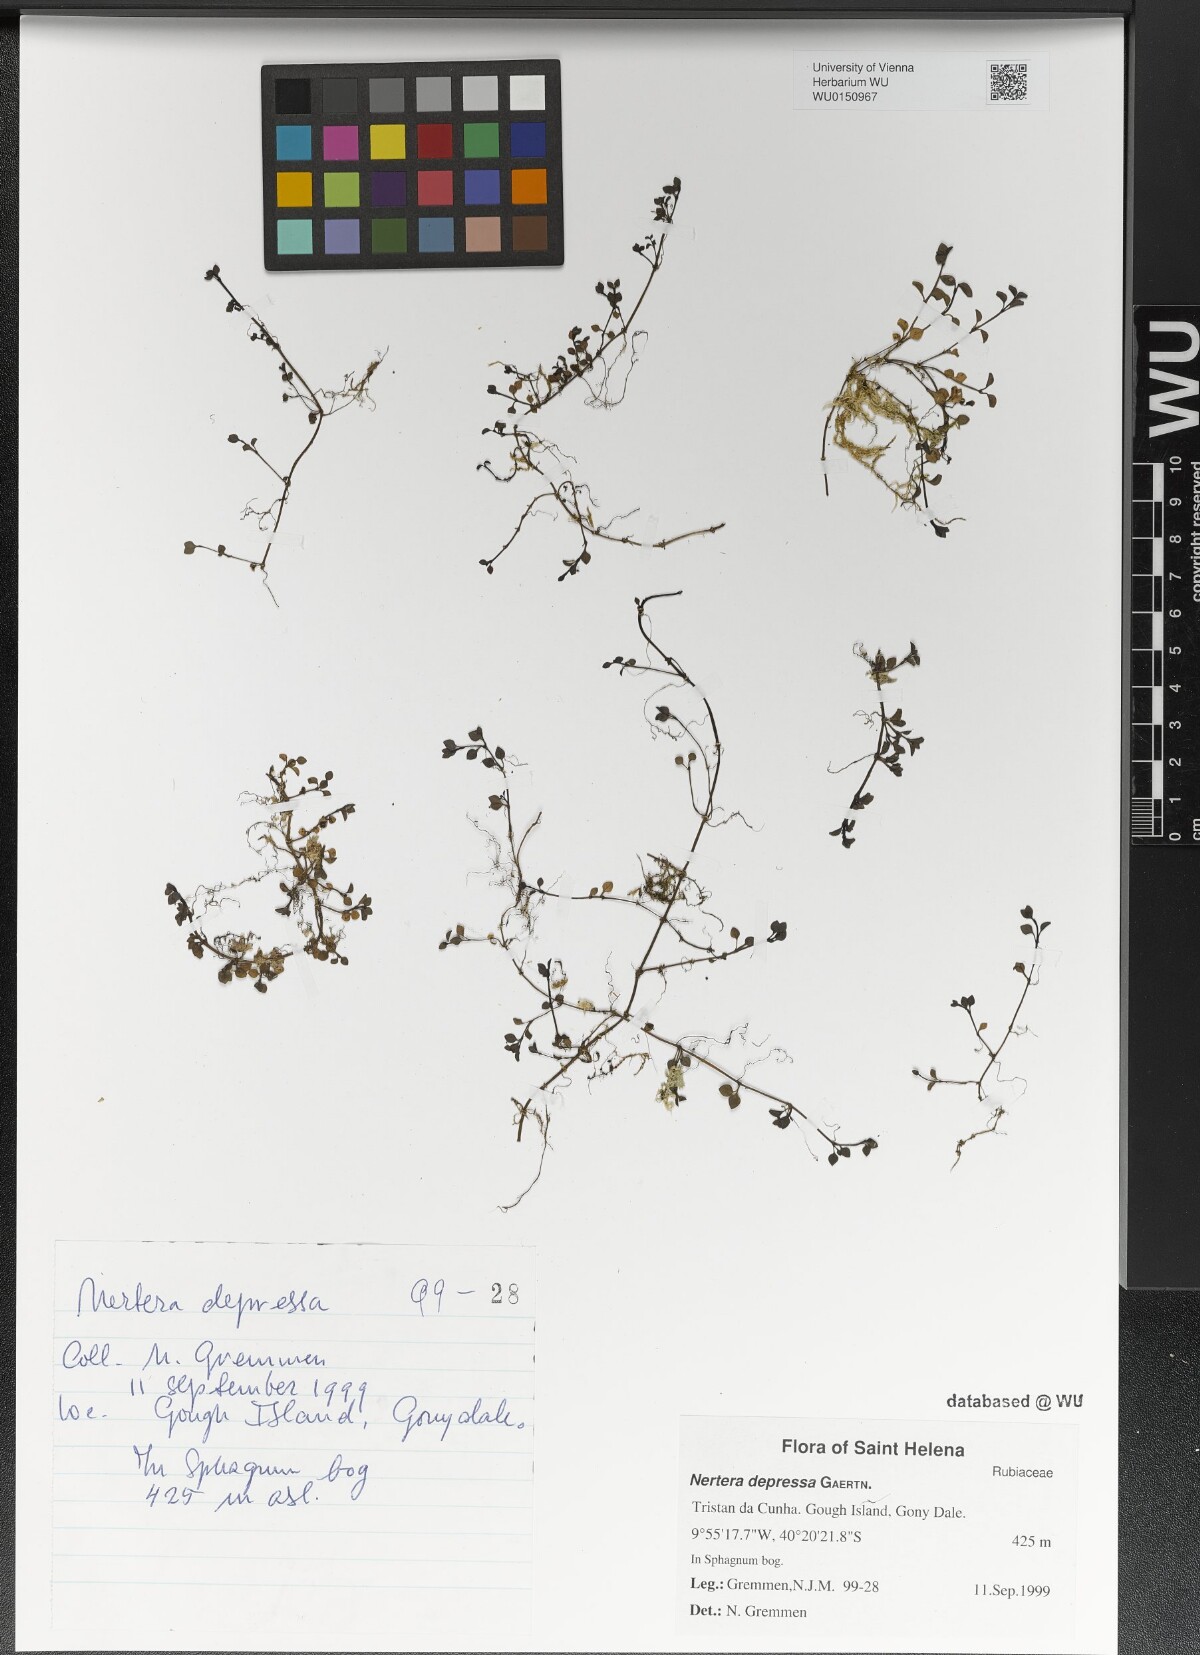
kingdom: Plantae
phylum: Tracheophyta
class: Magnoliopsida
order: Gentianales
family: Rubiaceae
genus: Nertera
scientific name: Nertera granadensis
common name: Beadplant
